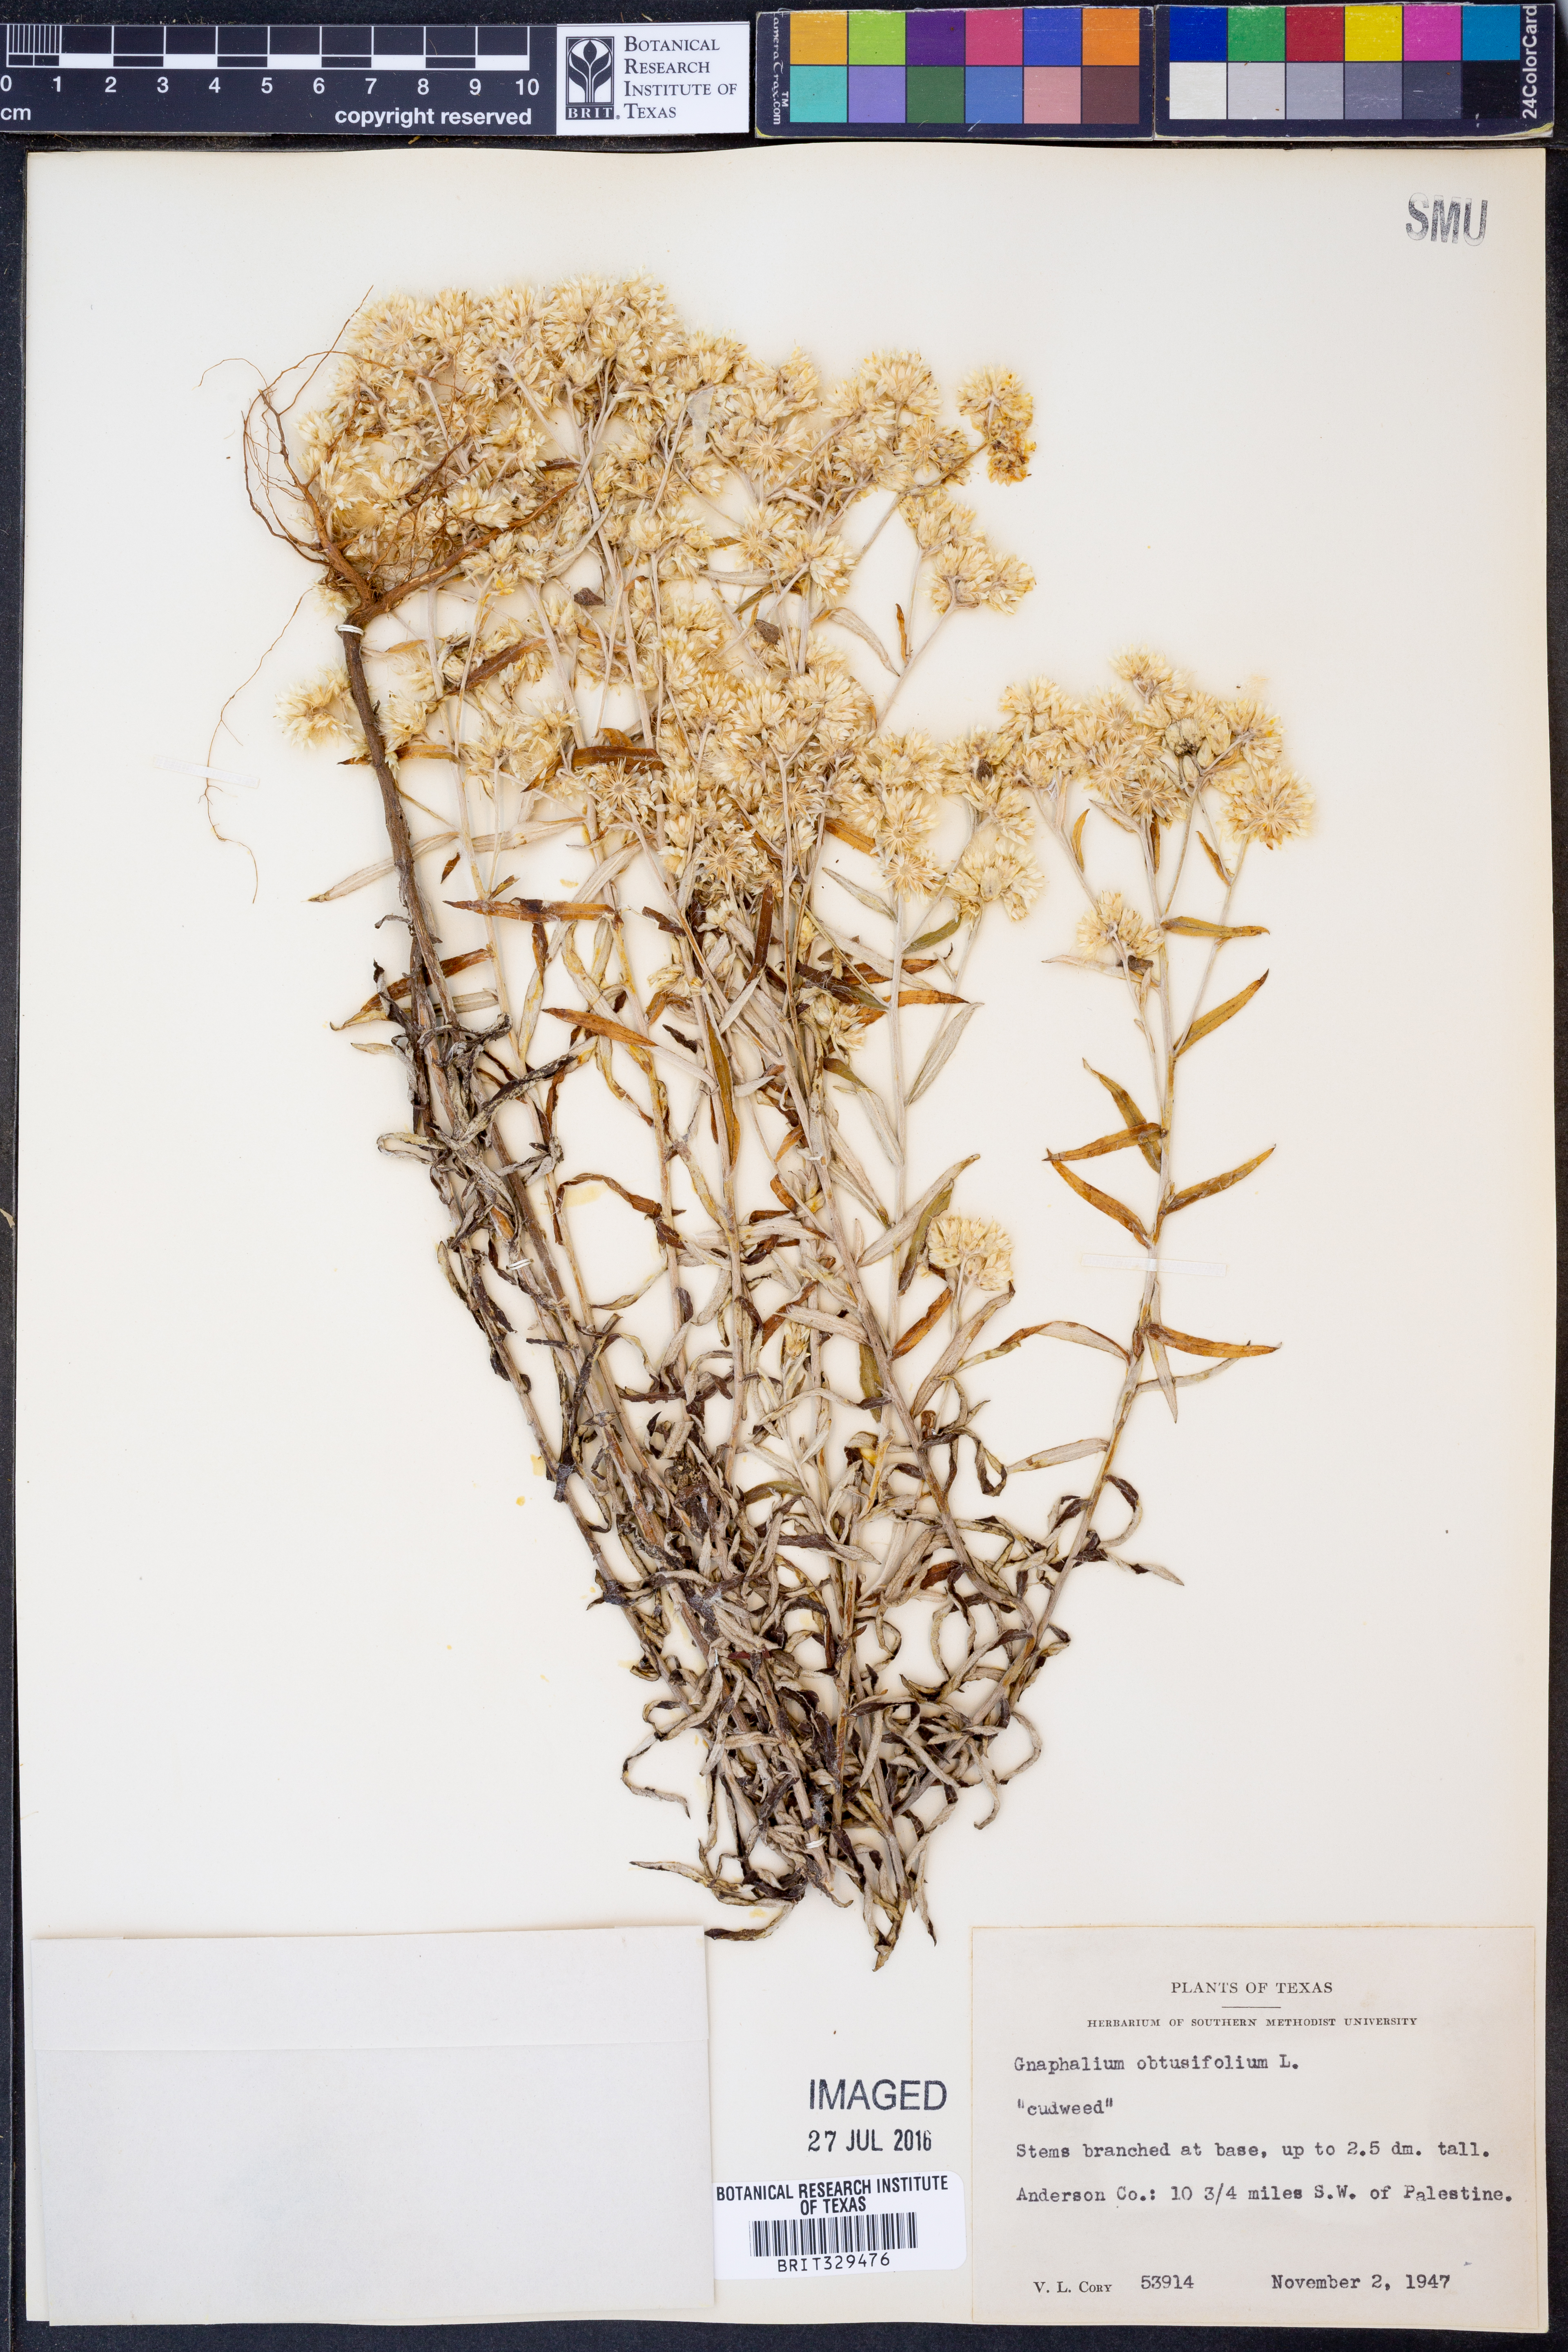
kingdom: Plantae
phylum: Tracheophyta
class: Magnoliopsida
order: Asterales
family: Asteraceae
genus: Pseudognaphalium
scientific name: Pseudognaphalium obtusifolium
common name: Eastern rabbit-tobacco
